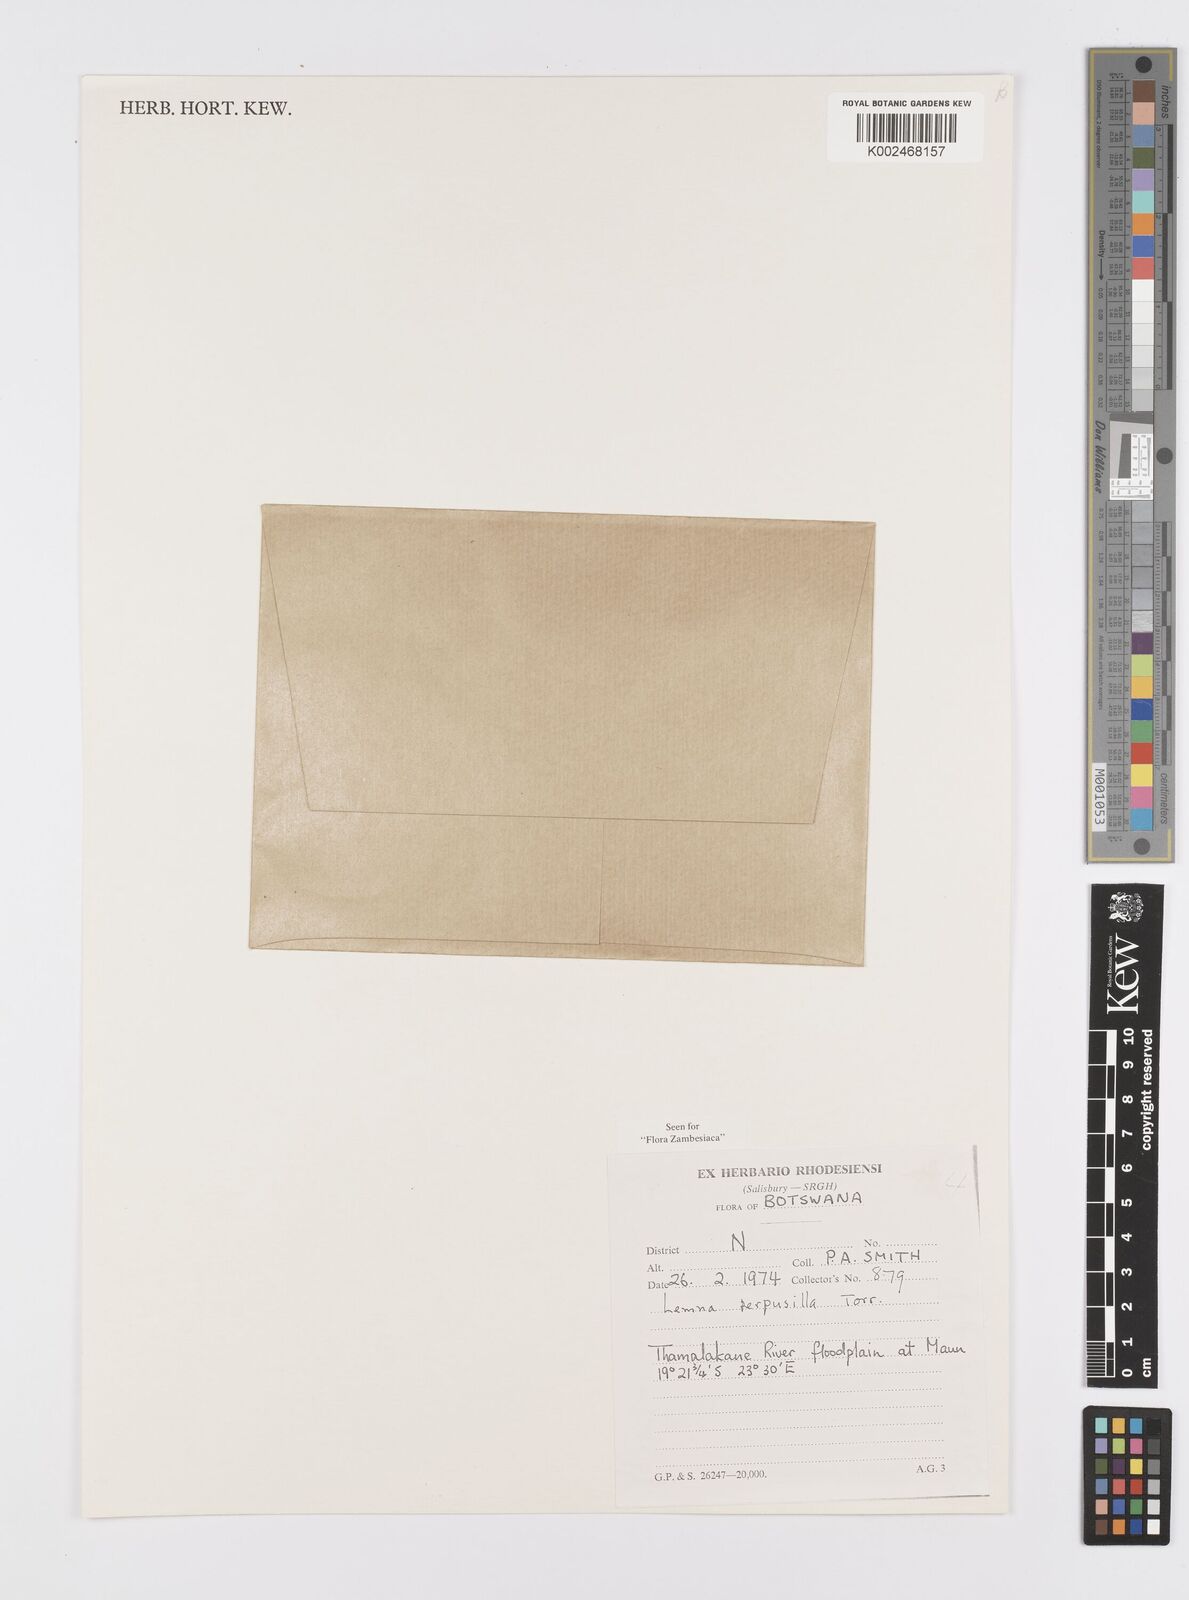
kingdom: Plantae
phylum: Tracheophyta
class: Liliopsida
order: Alismatales
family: Araceae
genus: Lemna
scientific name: Lemna aequinoctialis
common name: Duckweed
